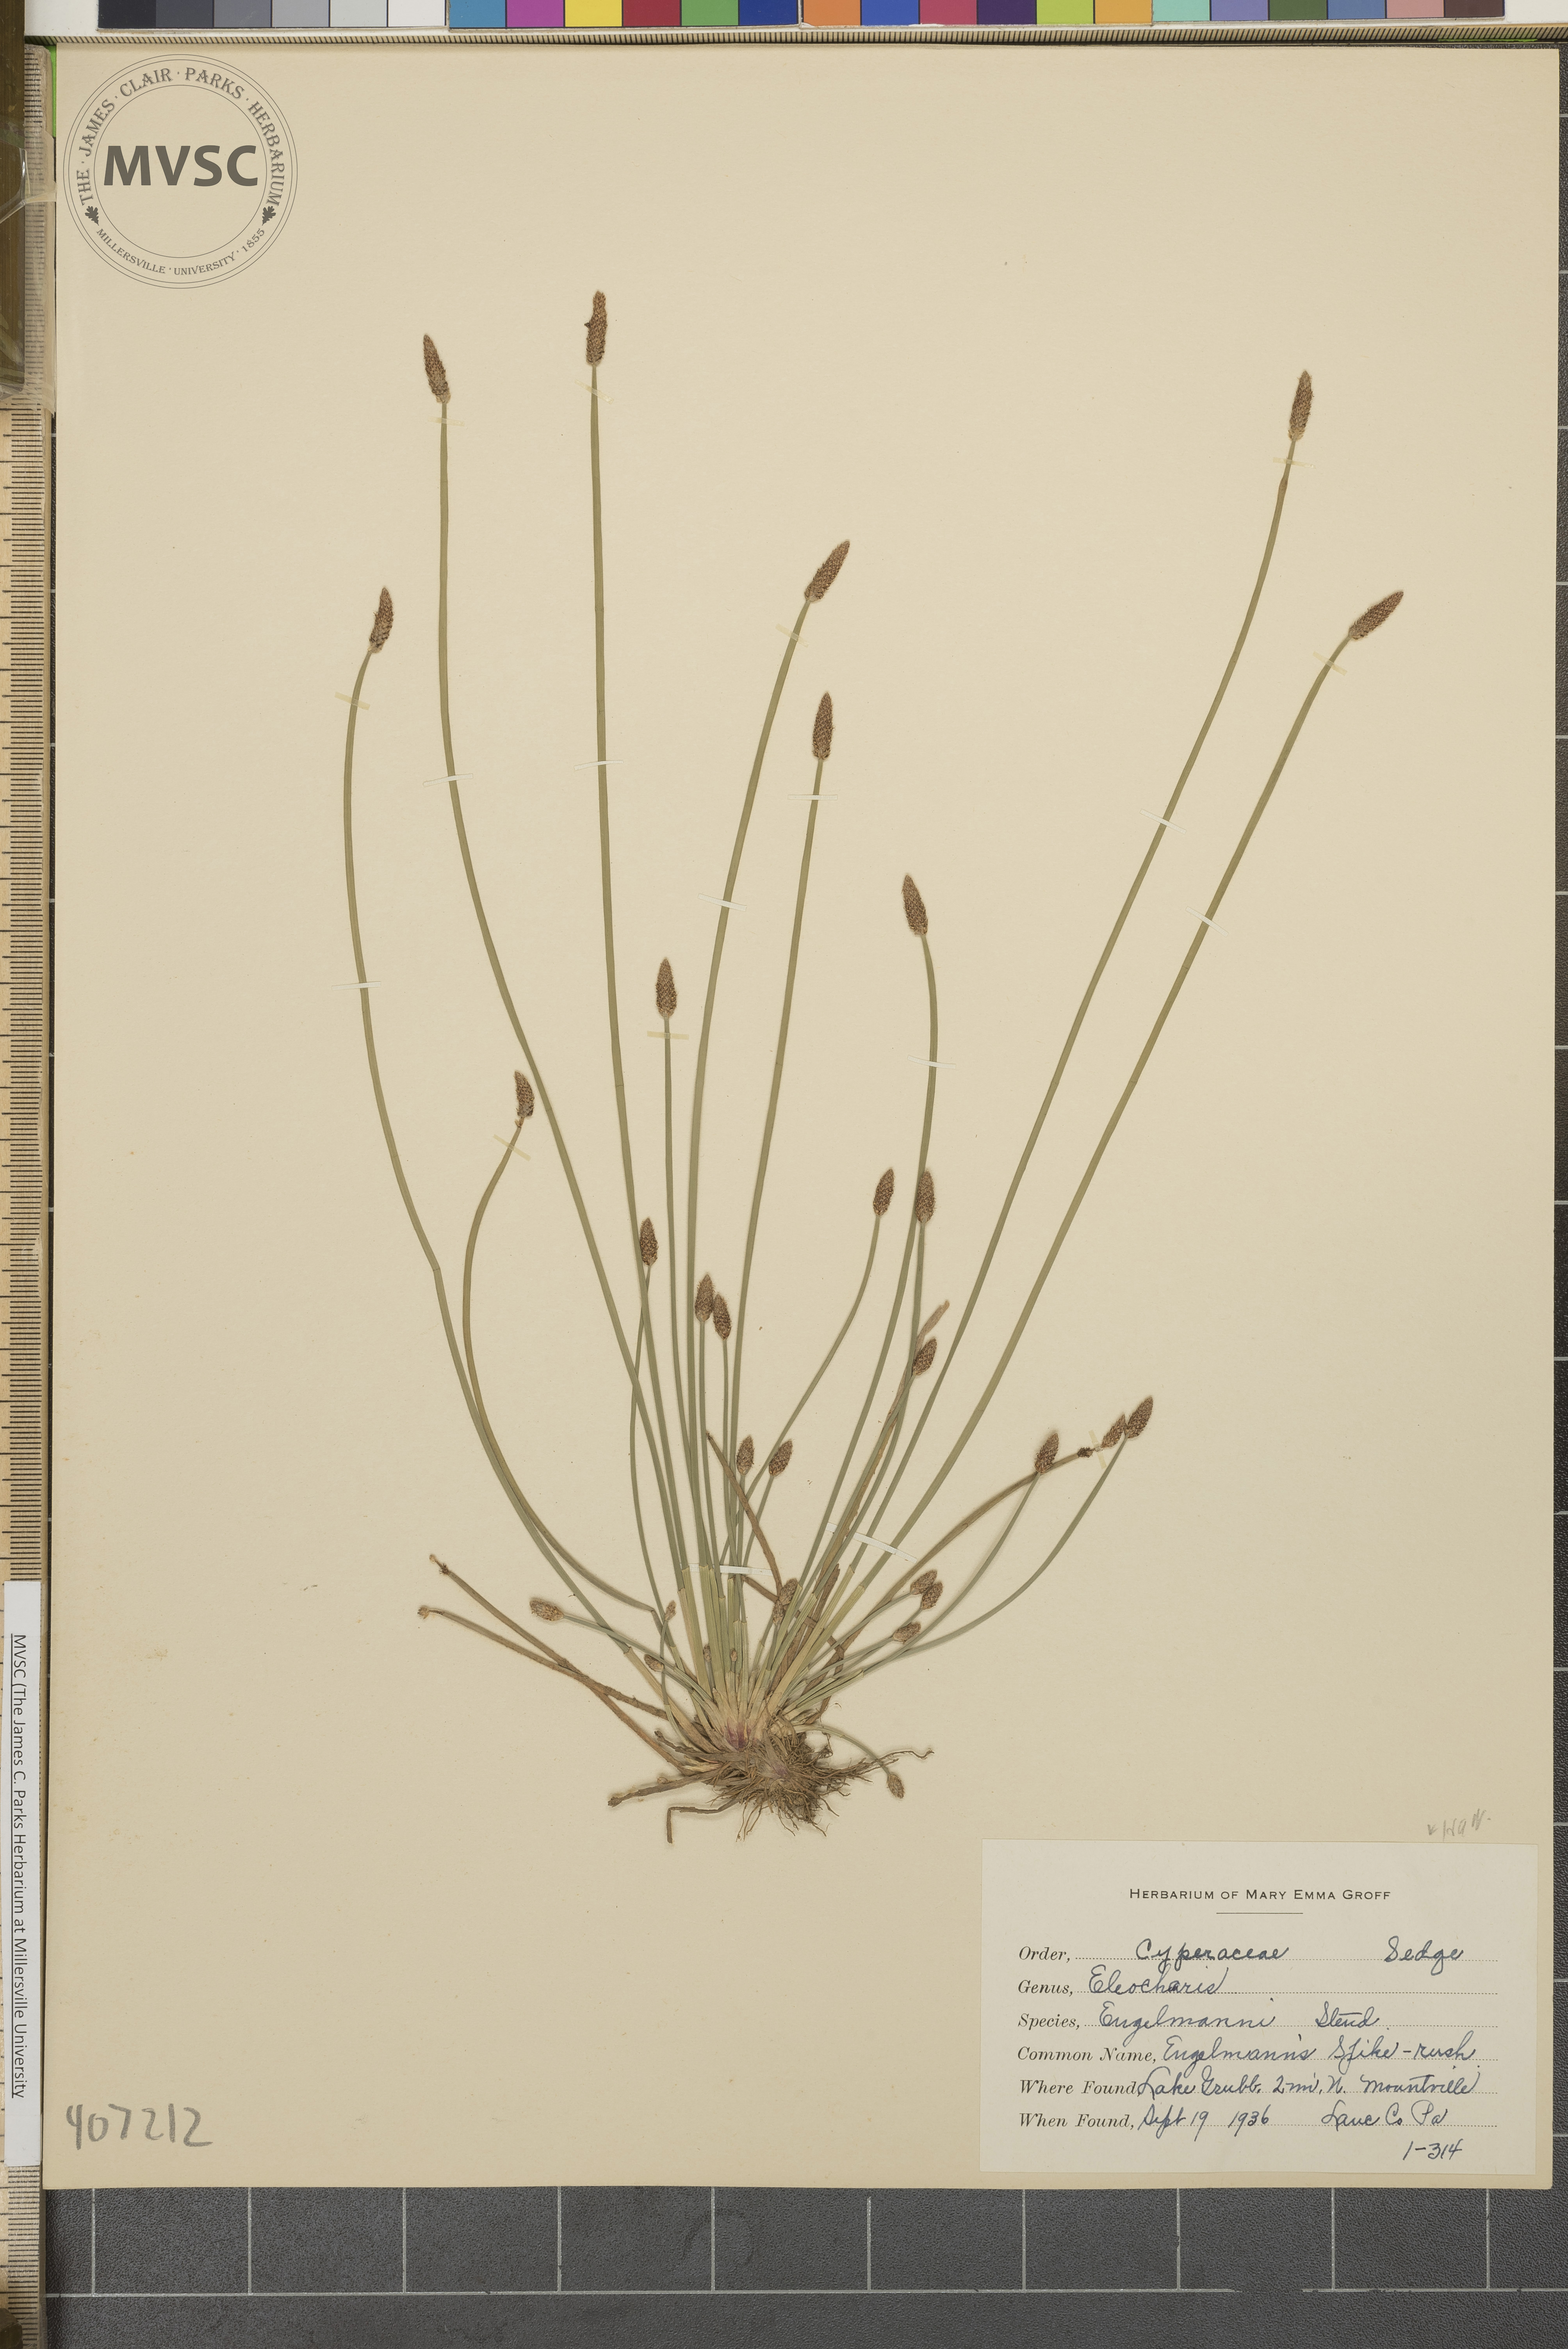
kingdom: Plantae
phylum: Tracheophyta
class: Liliopsida
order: Poales
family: Cyperaceae
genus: Eleocharis
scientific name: Eleocharis engelmannii
